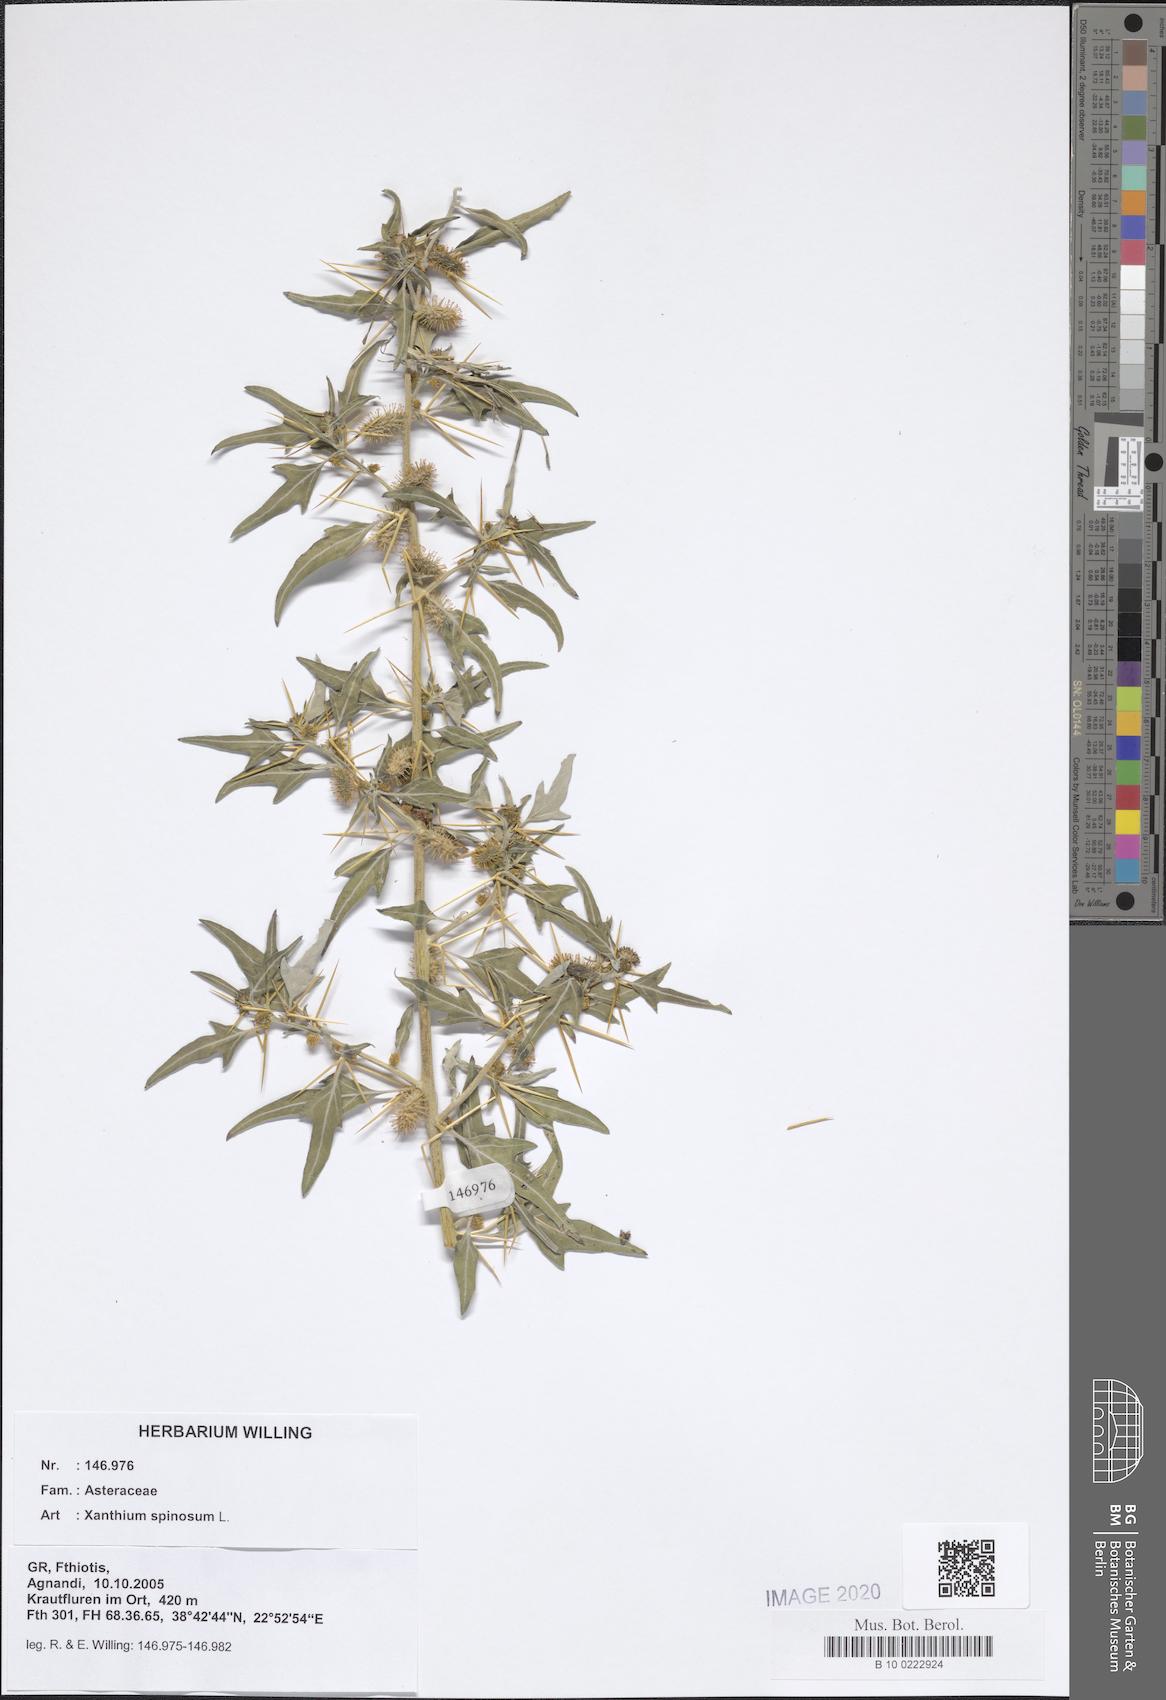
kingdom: Plantae
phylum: Tracheophyta
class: Magnoliopsida
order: Asterales
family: Asteraceae
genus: Xanthium
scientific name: Xanthium spinosum
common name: Spiny cocklebur
